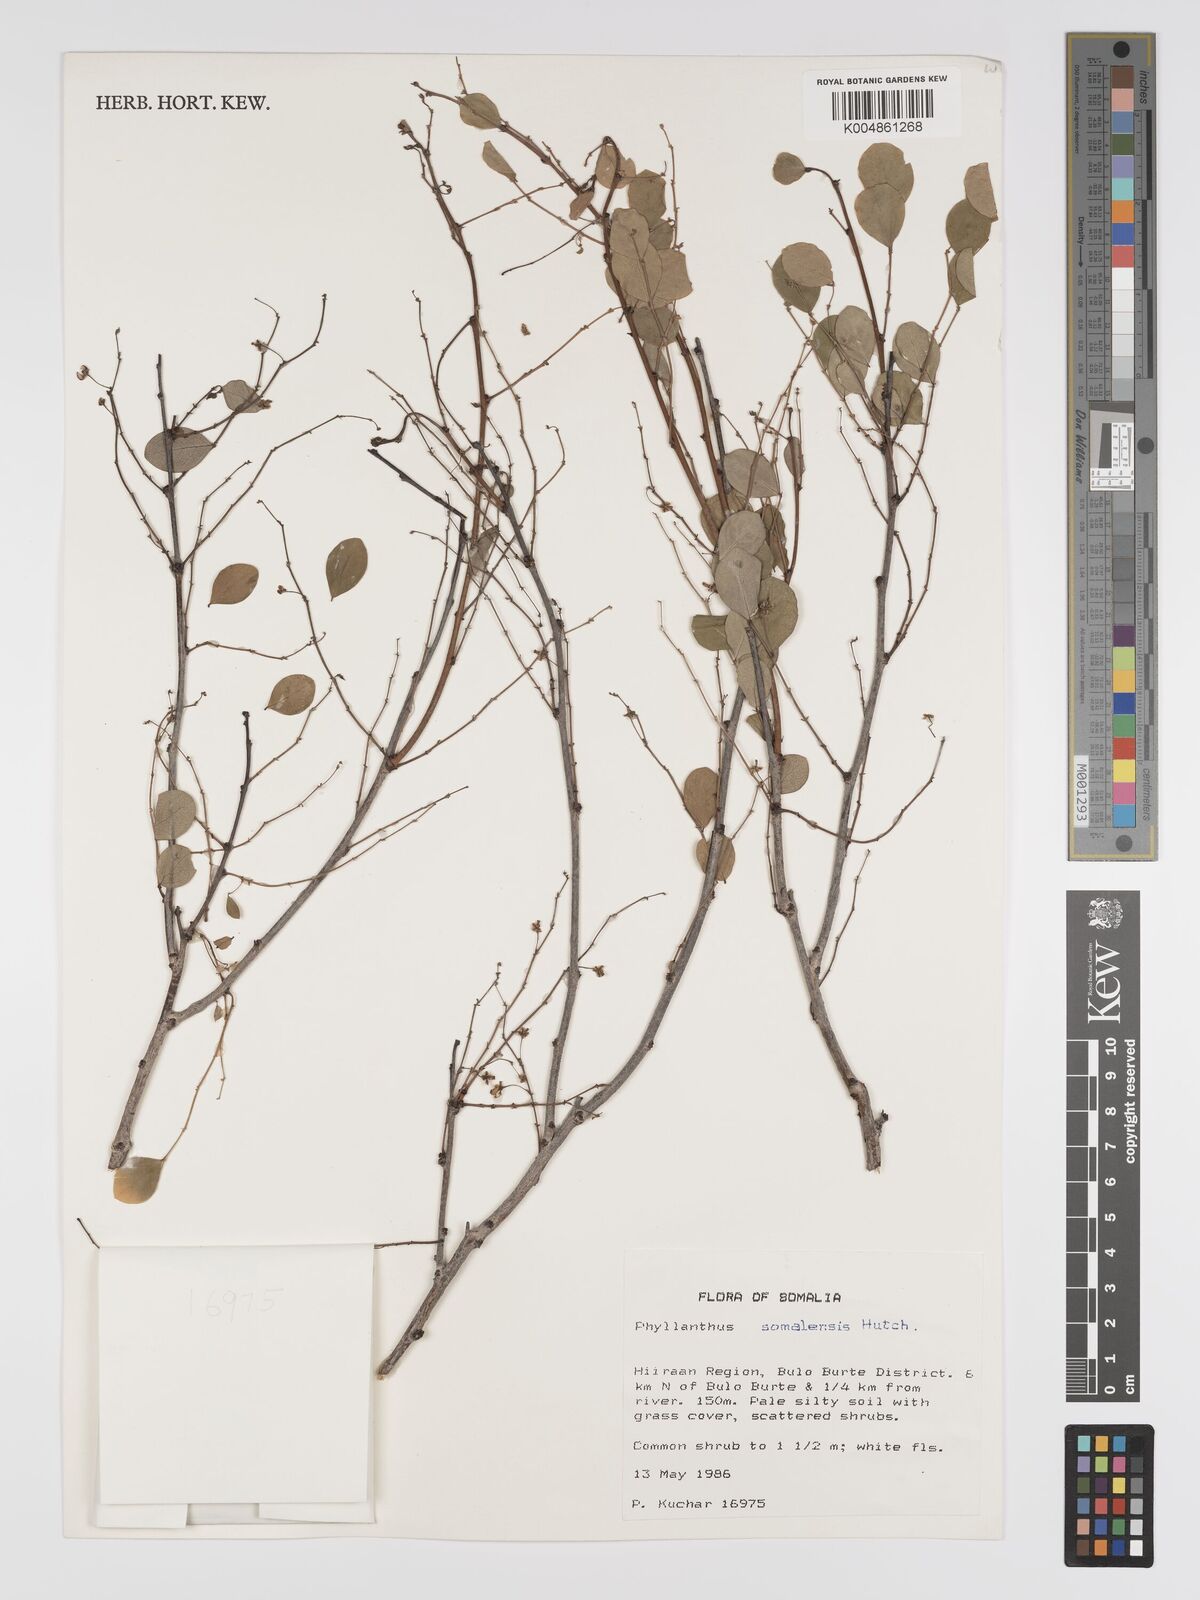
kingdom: Plantae
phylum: Tracheophyta
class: Magnoliopsida
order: Malpighiales
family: Phyllanthaceae
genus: Phyllanthus
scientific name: Phyllanthus somalensis
